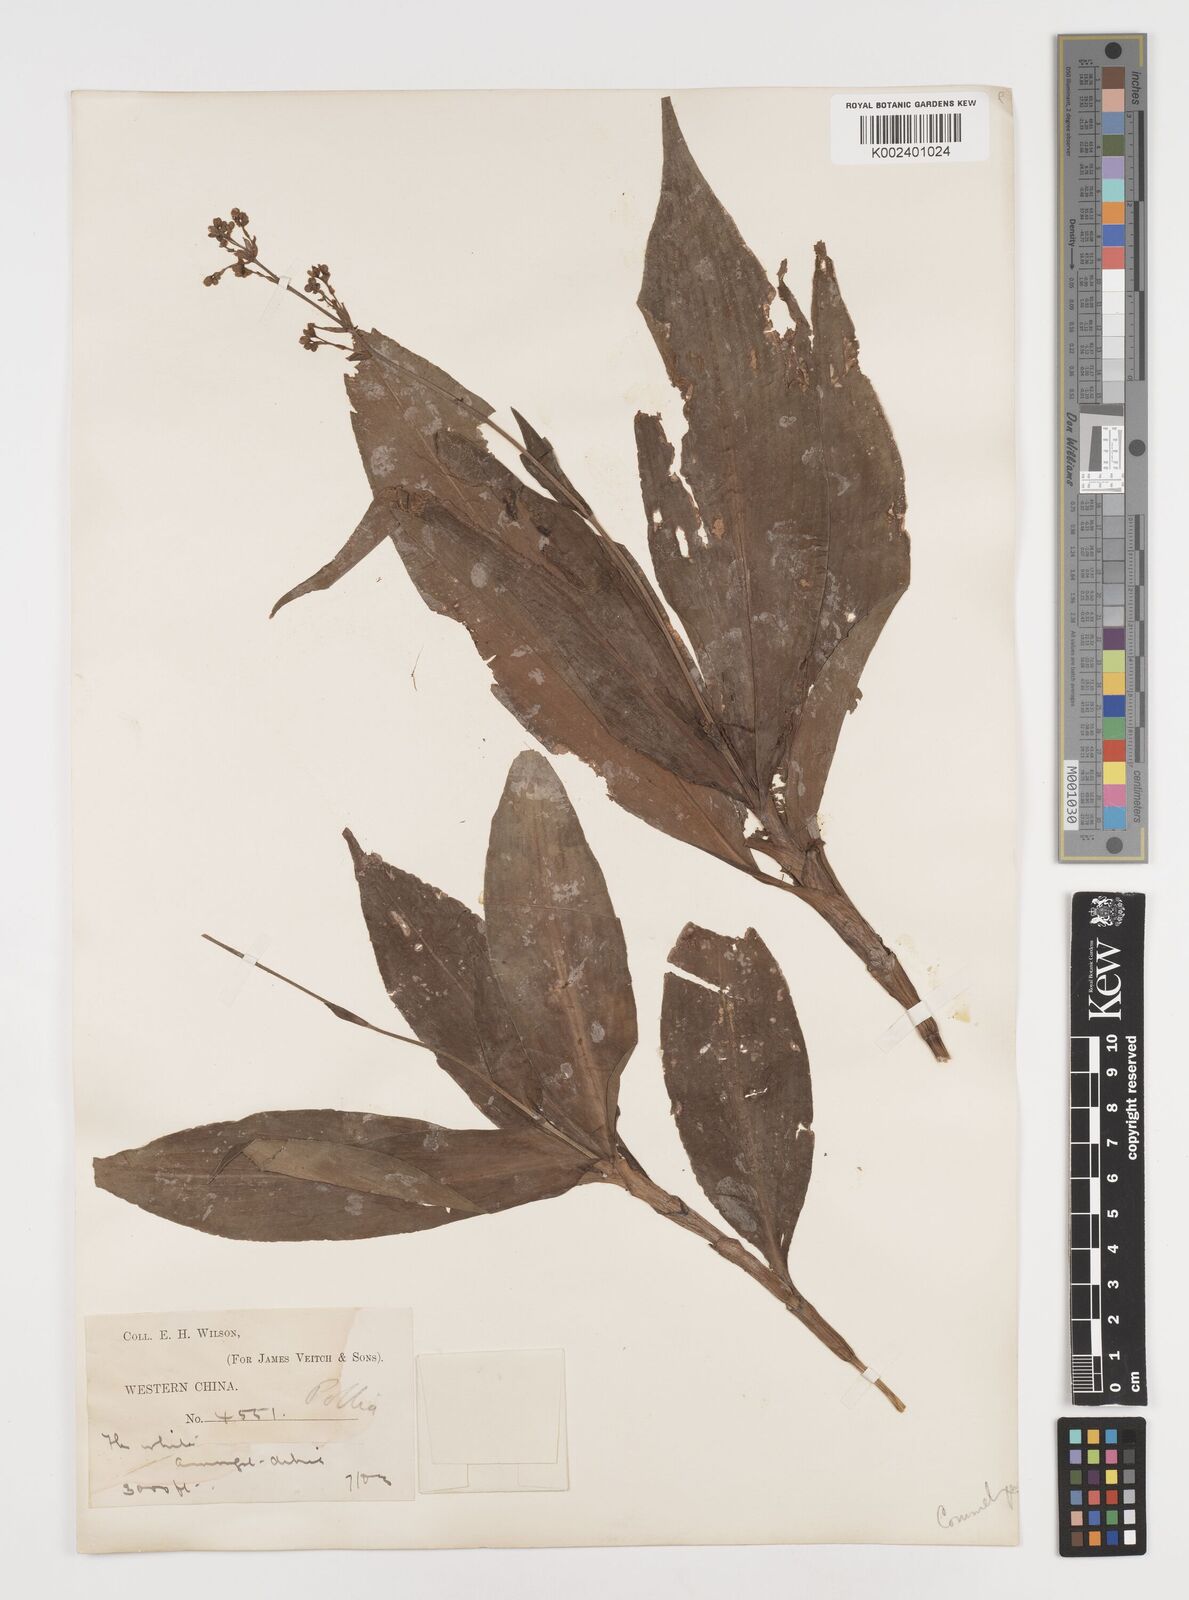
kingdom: Plantae
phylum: Tracheophyta
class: Liliopsida
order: Commelinales
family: Commelinaceae
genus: Pollia
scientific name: Pollia
